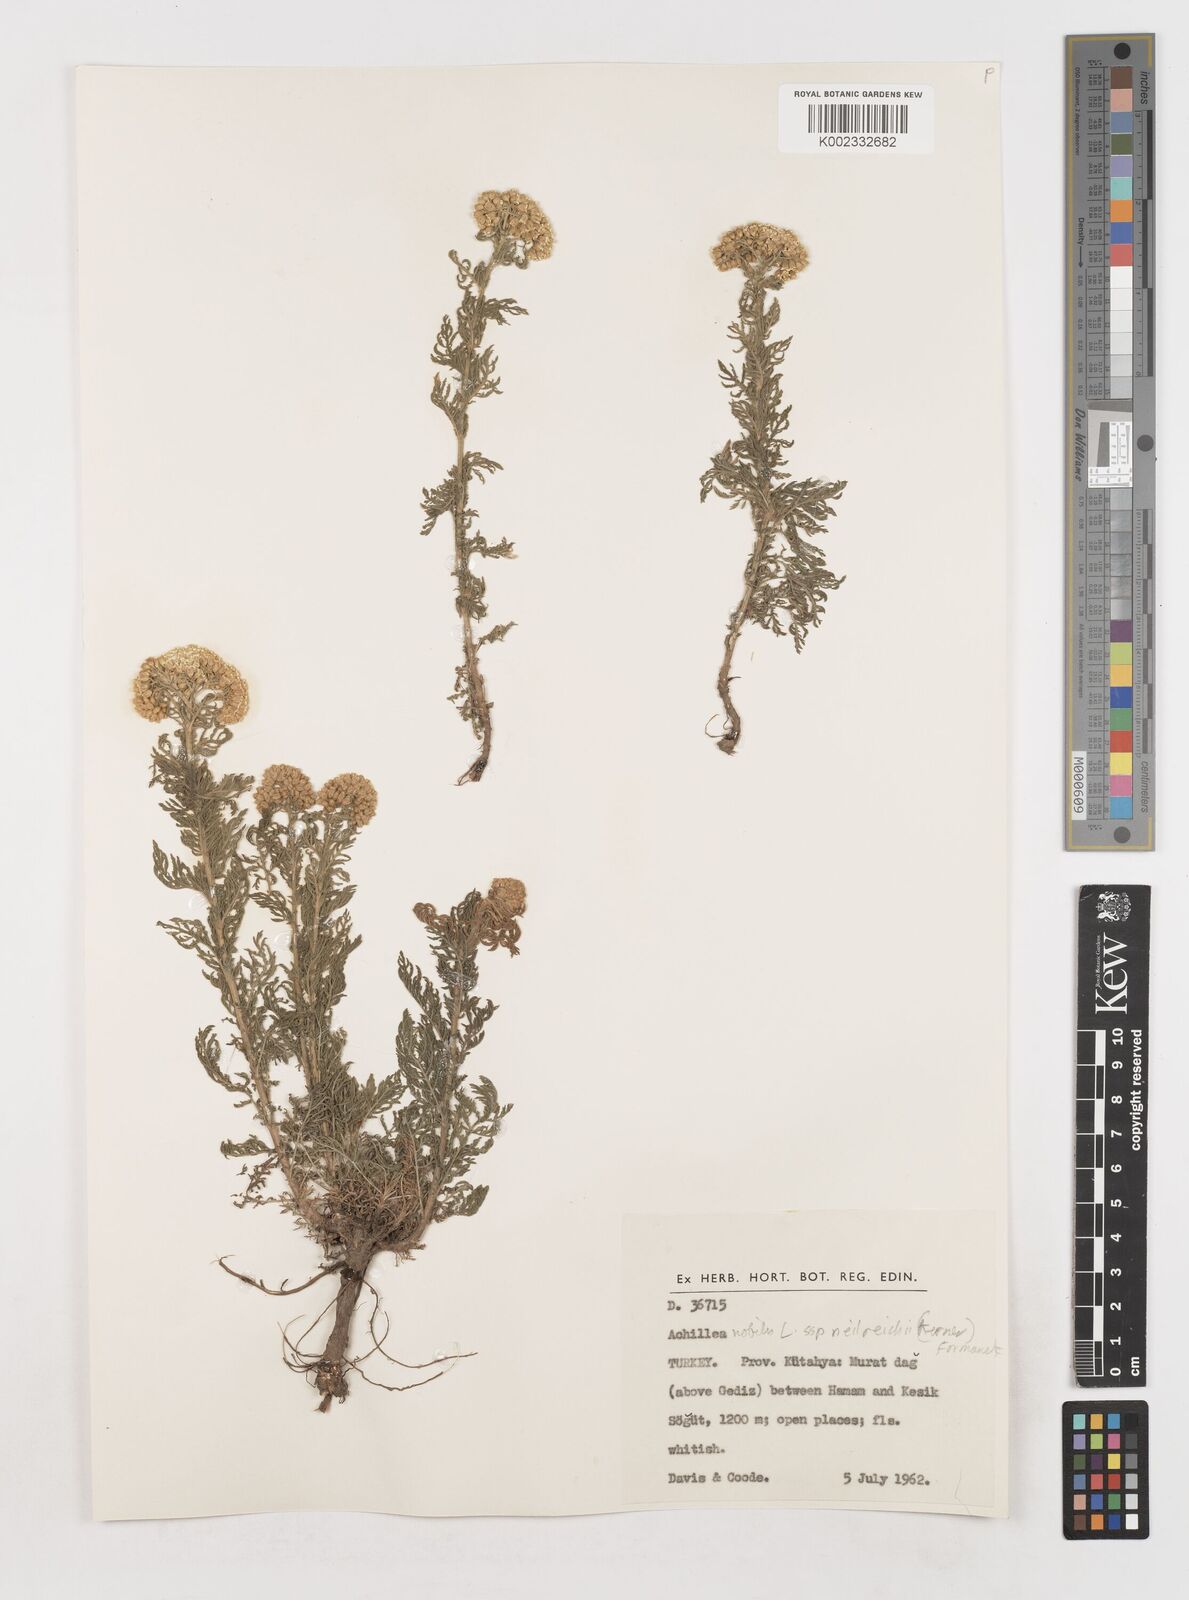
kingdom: Plantae
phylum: Tracheophyta
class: Magnoliopsida
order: Asterales
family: Asteraceae
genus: Achillea
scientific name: Achillea nobilis
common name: Noble yarrow
